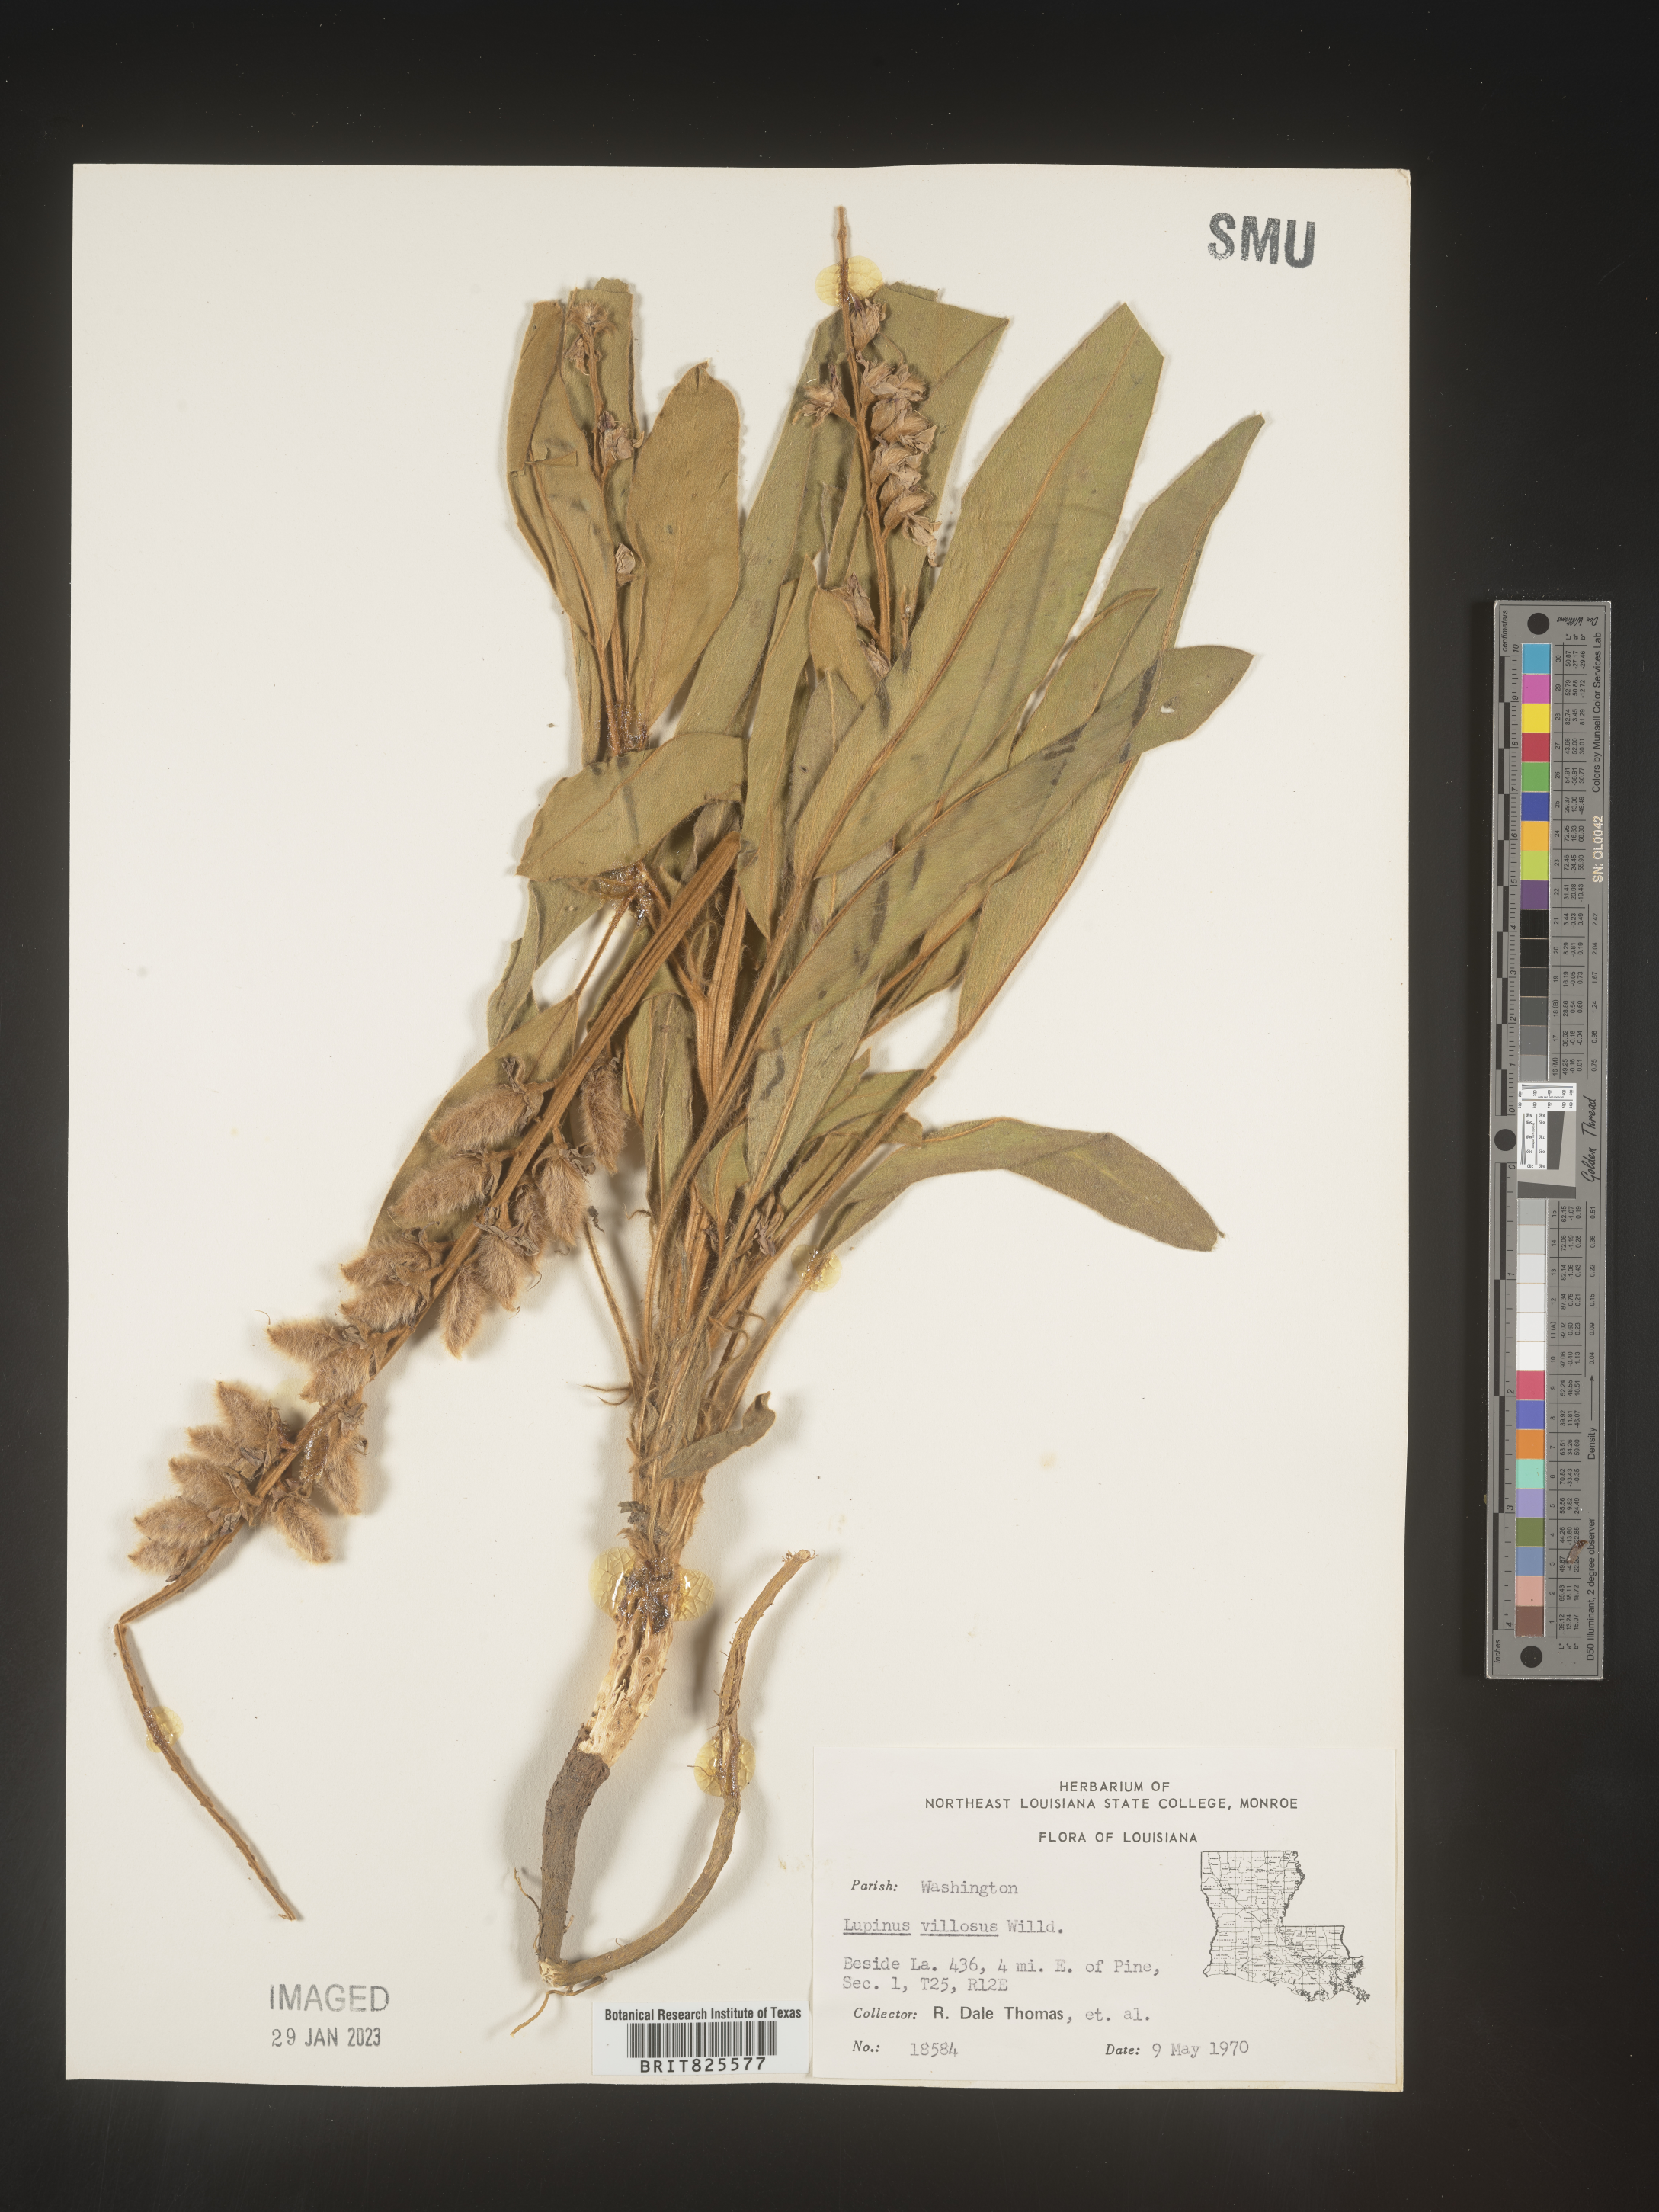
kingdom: Plantae
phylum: Tracheophyta
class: Magnoliopsida
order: Fabales
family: Fabaceae
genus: Lupinus
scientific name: Lupinus villosus
